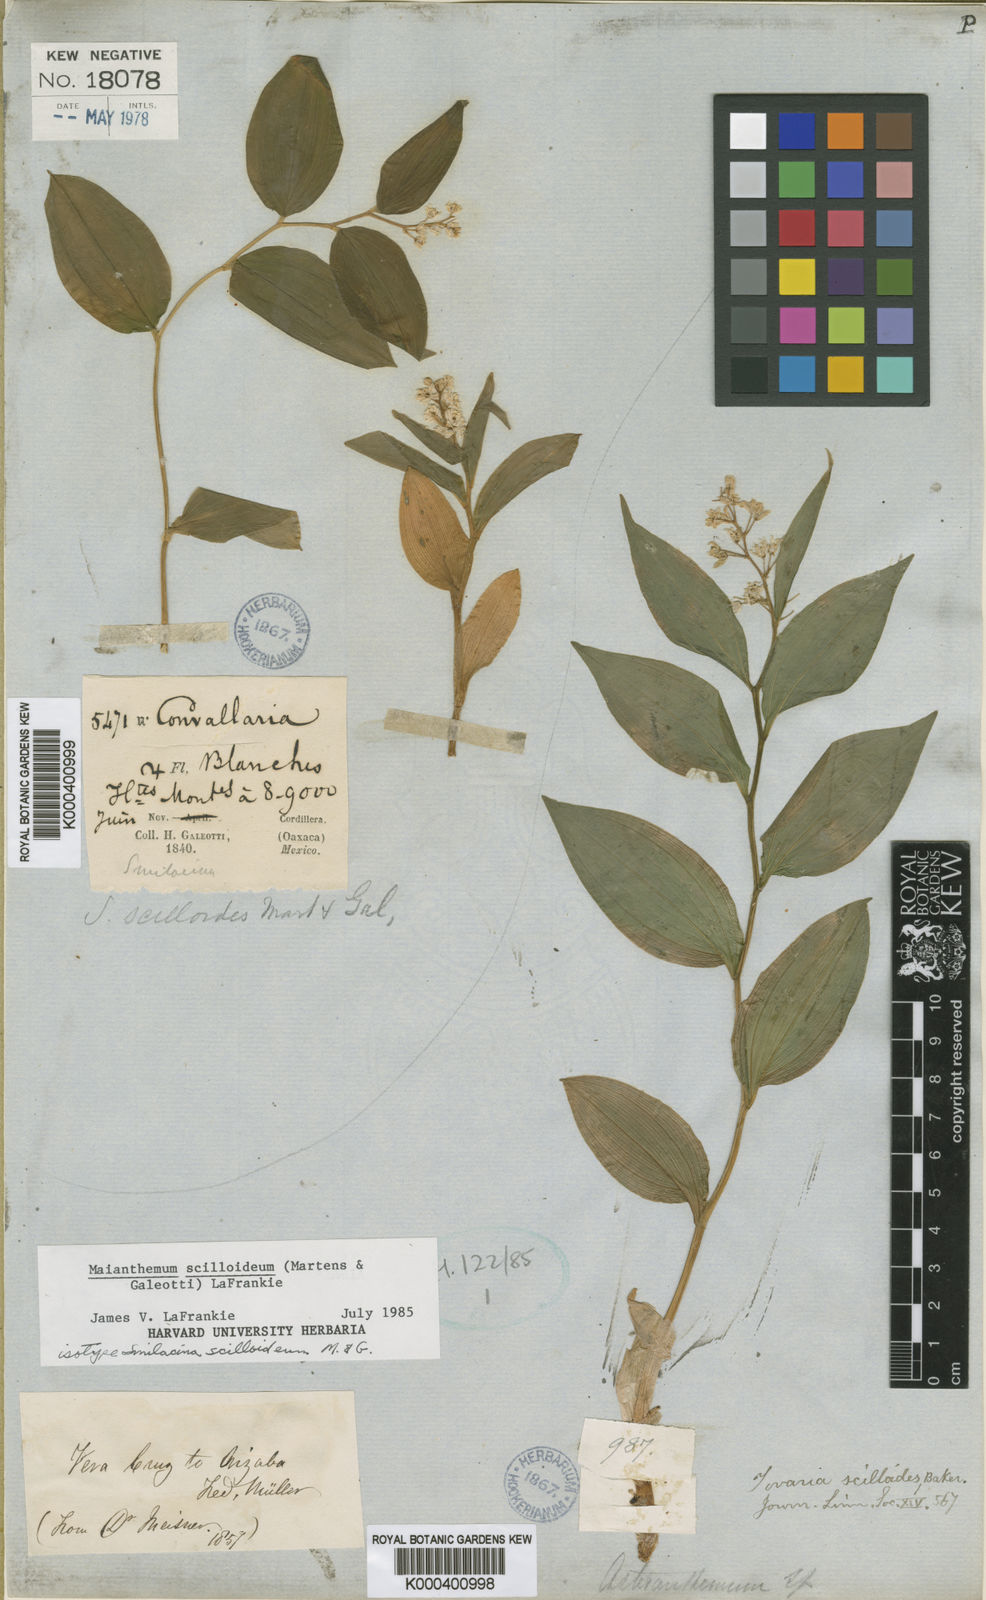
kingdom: Plantae
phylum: Tracheophyta
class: Liliopsida
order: Asparagales
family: Asparagaceae
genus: Maianthemum
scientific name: Maianthemum scilloideum
